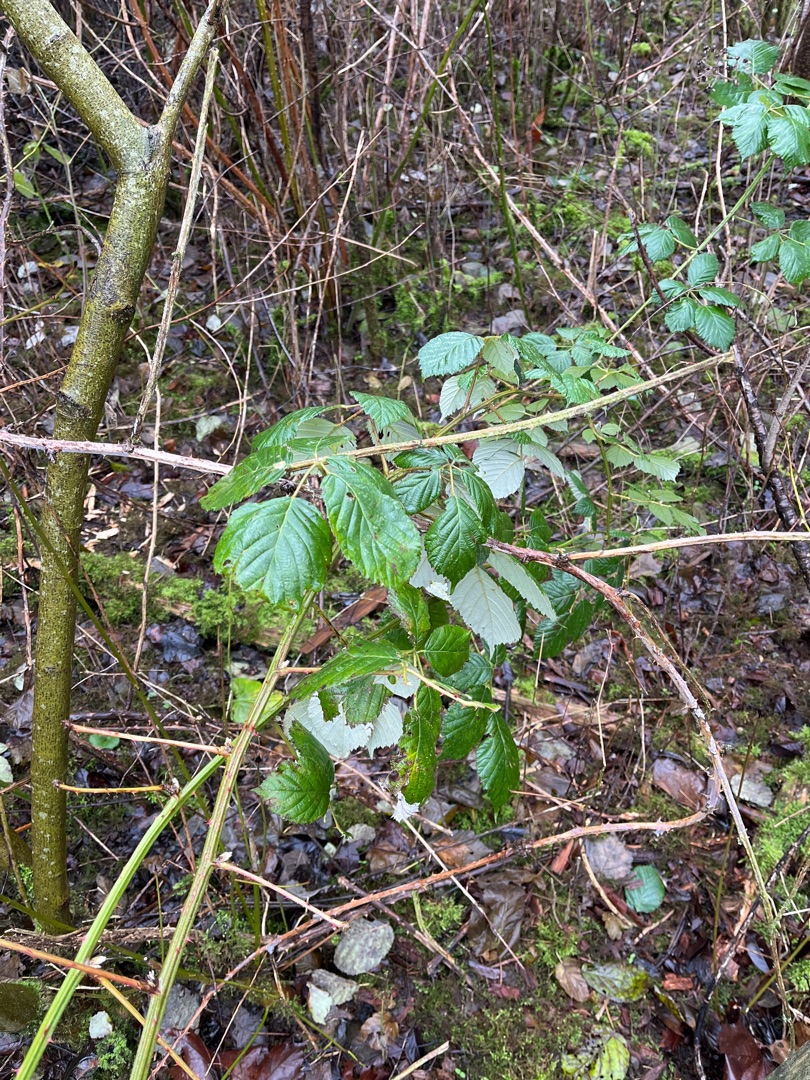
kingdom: Plantae
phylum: Tracheophyta
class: Magnoliopsida
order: Rosales
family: Rosaceae
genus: Rubus
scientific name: Rubus armeniacus
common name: Armensk brombær
